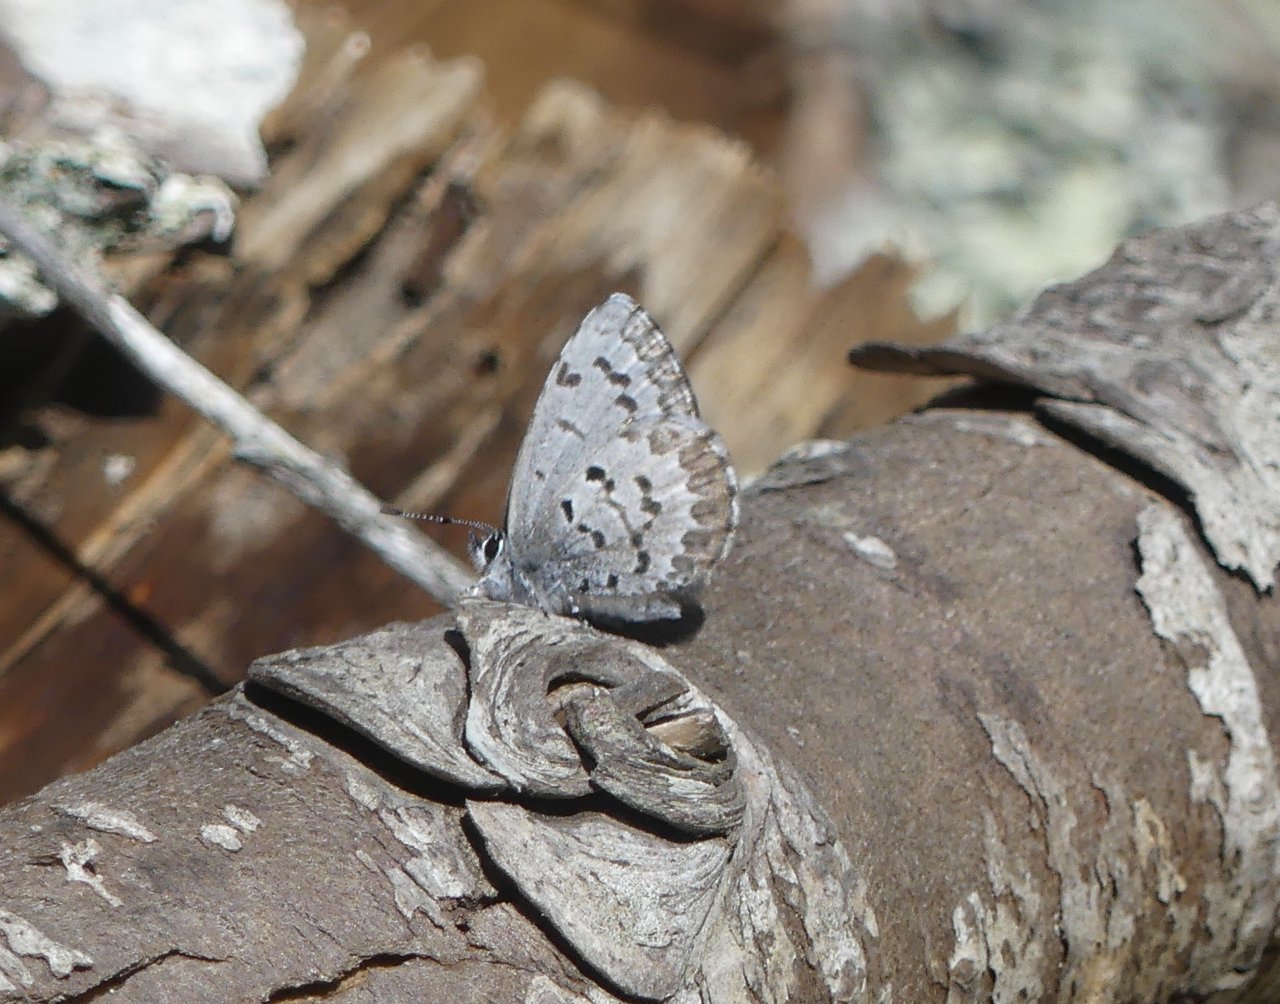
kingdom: Animalia
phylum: Arthropoda
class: Insecta
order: Lepidoptera
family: Lycaenidae
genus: Celastrina
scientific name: Celastrina ladon
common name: Spring Azure
